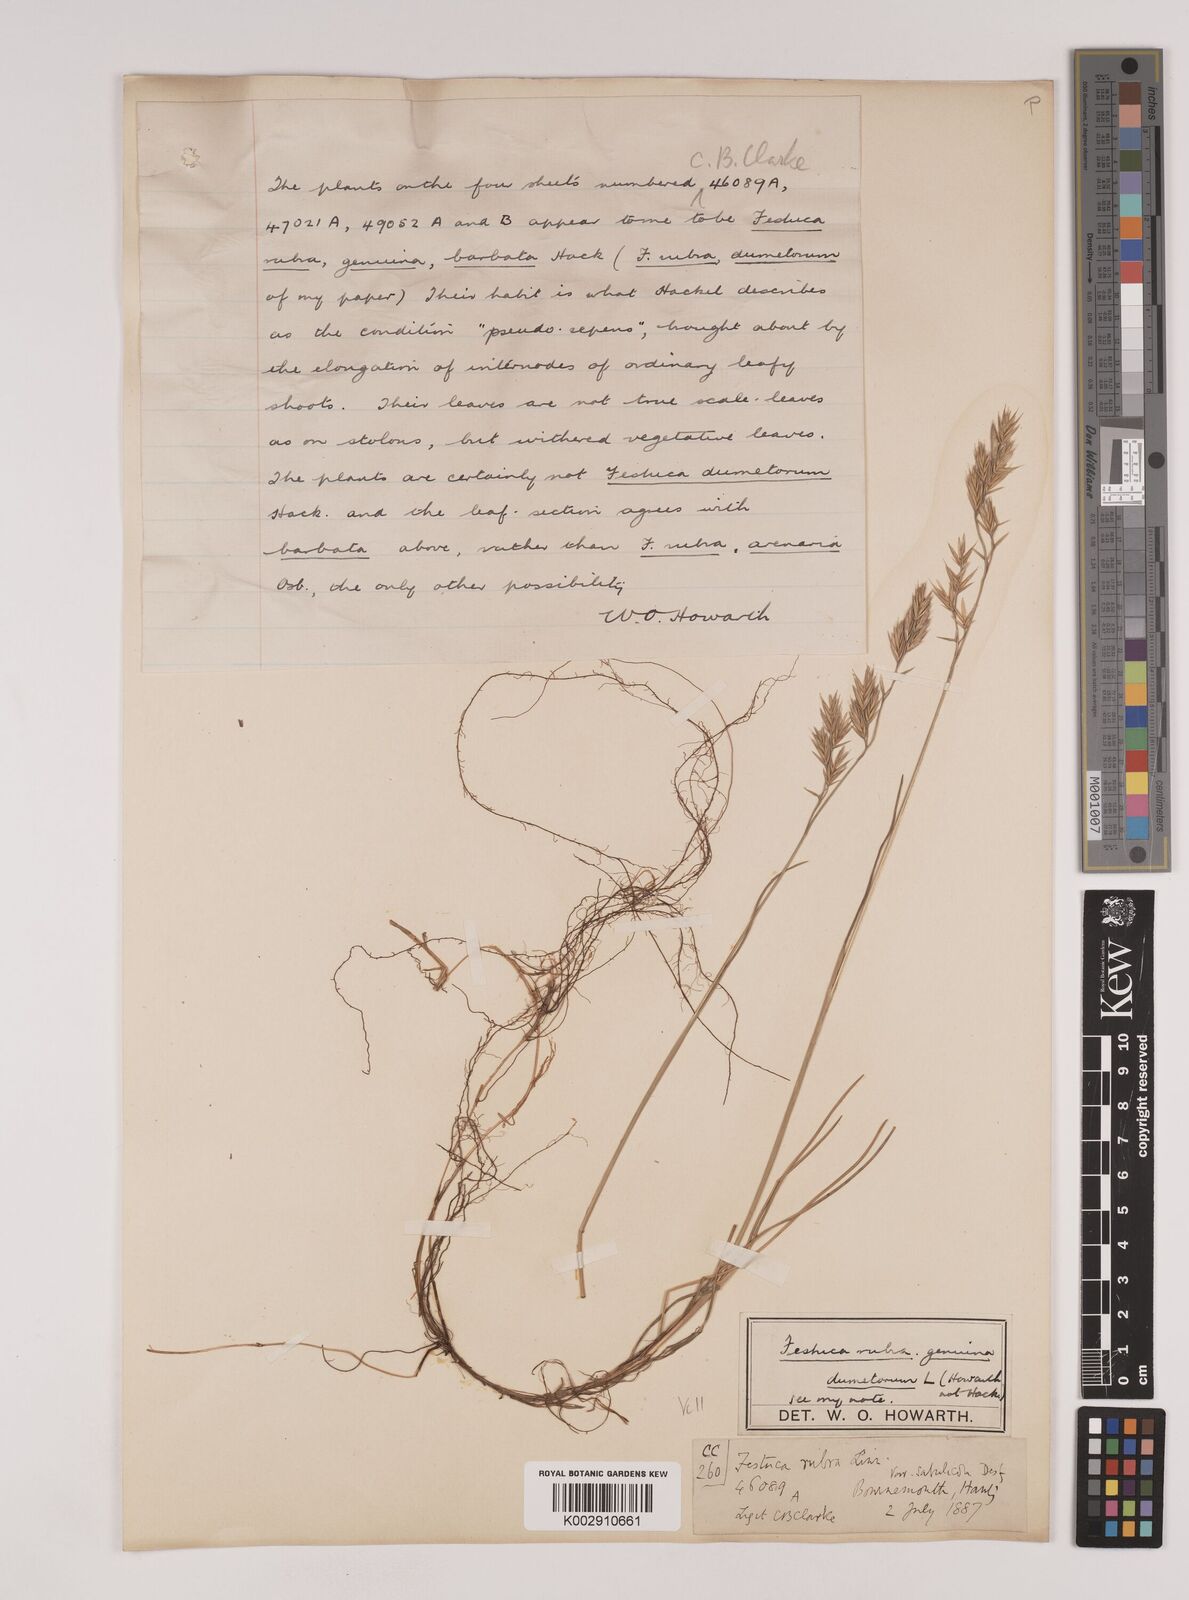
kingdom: Plantae
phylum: Tracheophyta
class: Liliopsida
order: Poales
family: Poaceae
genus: Festuca
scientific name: Festuca rubra
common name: Red fescue
